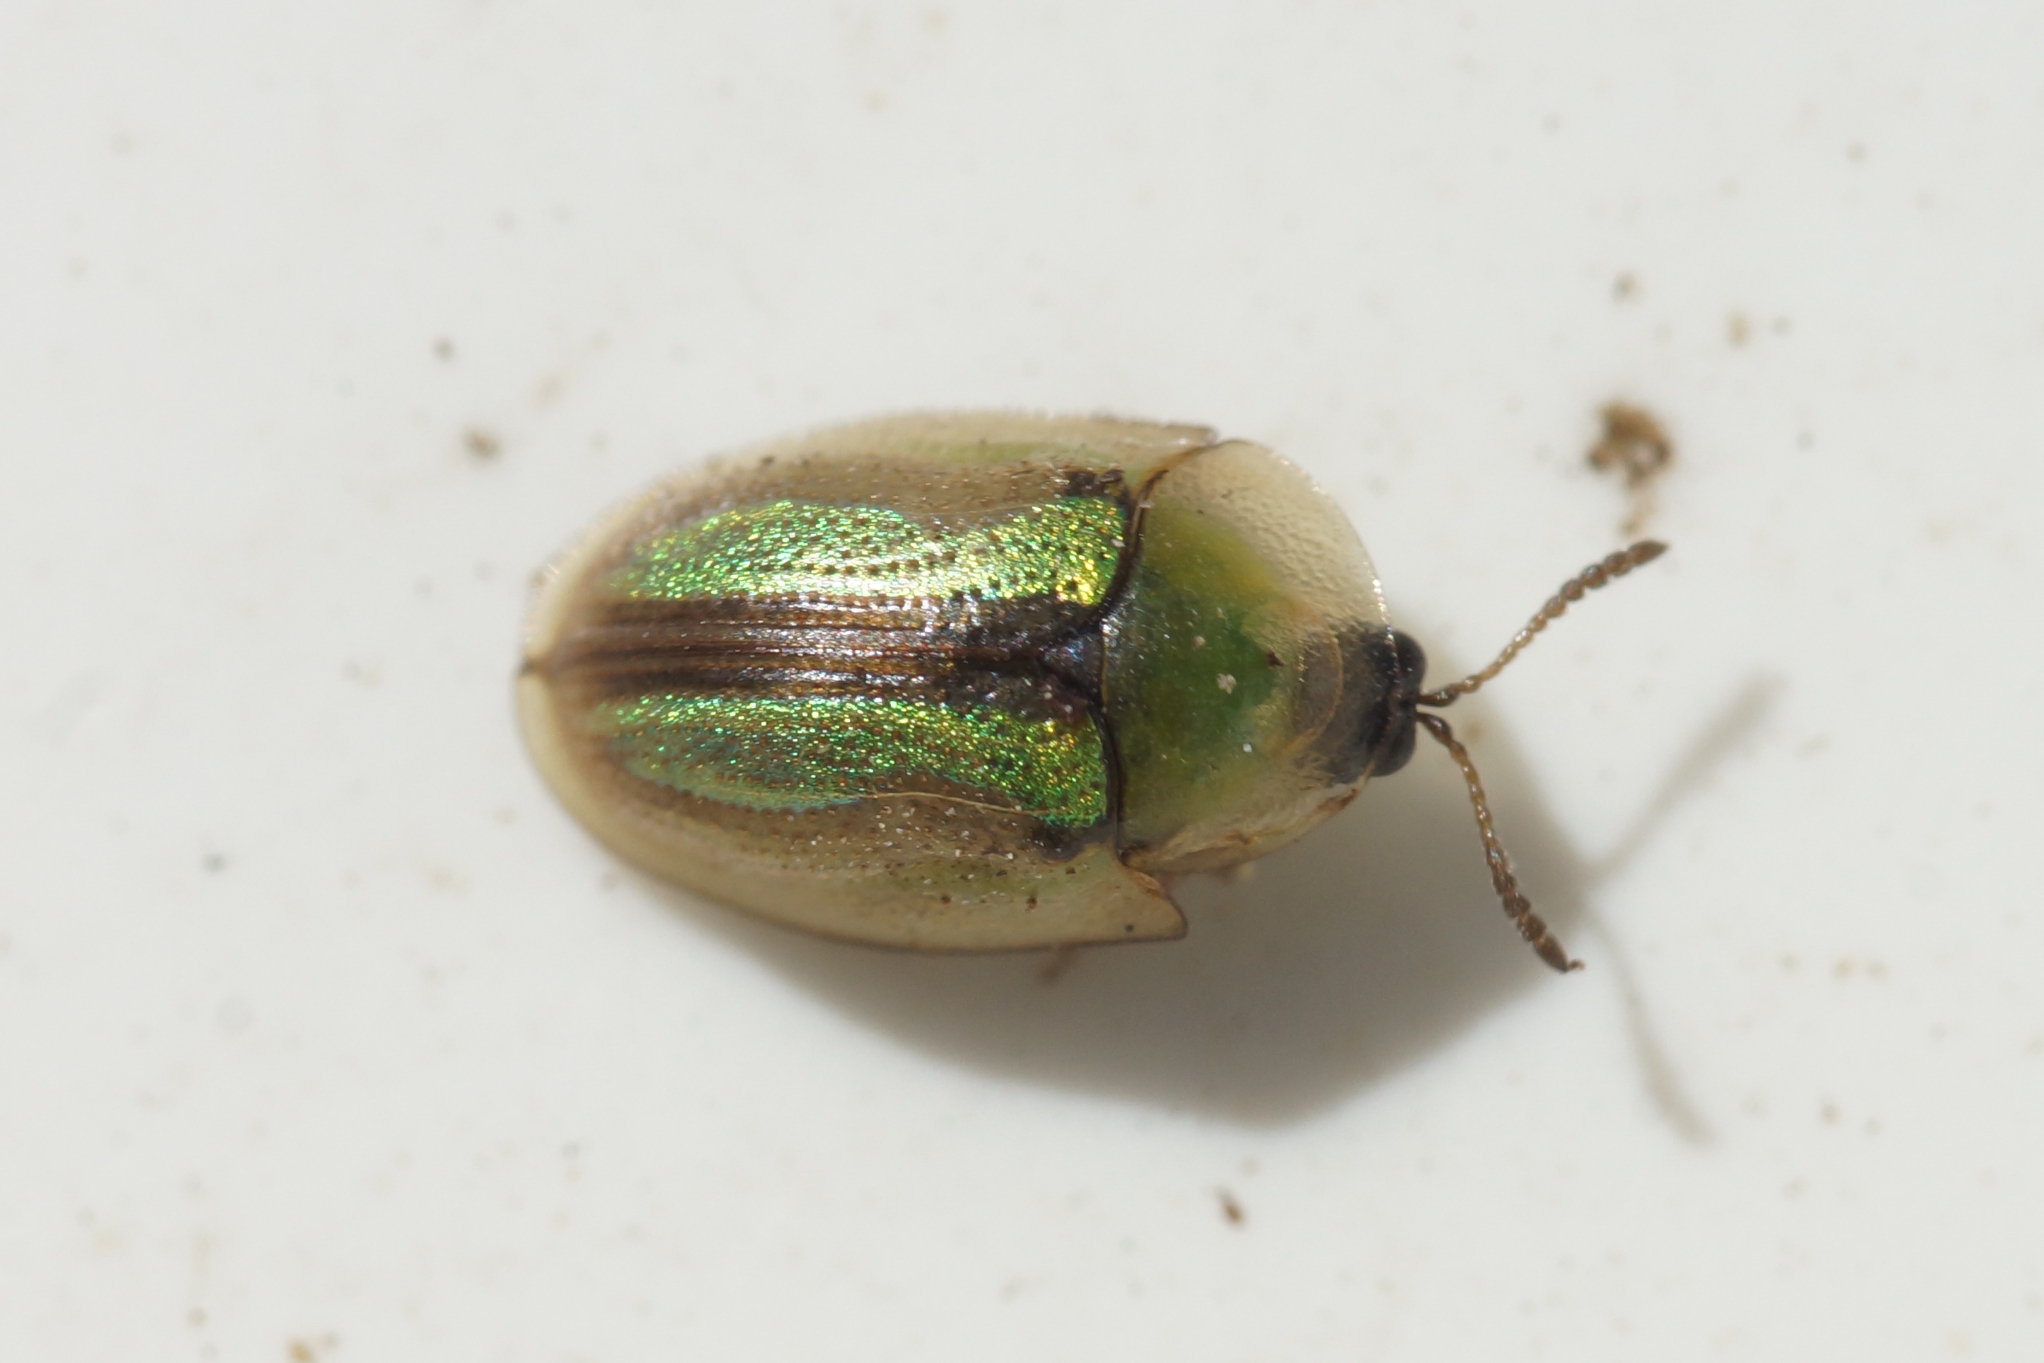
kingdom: Animalia
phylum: Arthropoda
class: Insecta
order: Coleoptera
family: Chrysomelidae
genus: Cassida
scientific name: Cassida vittata
